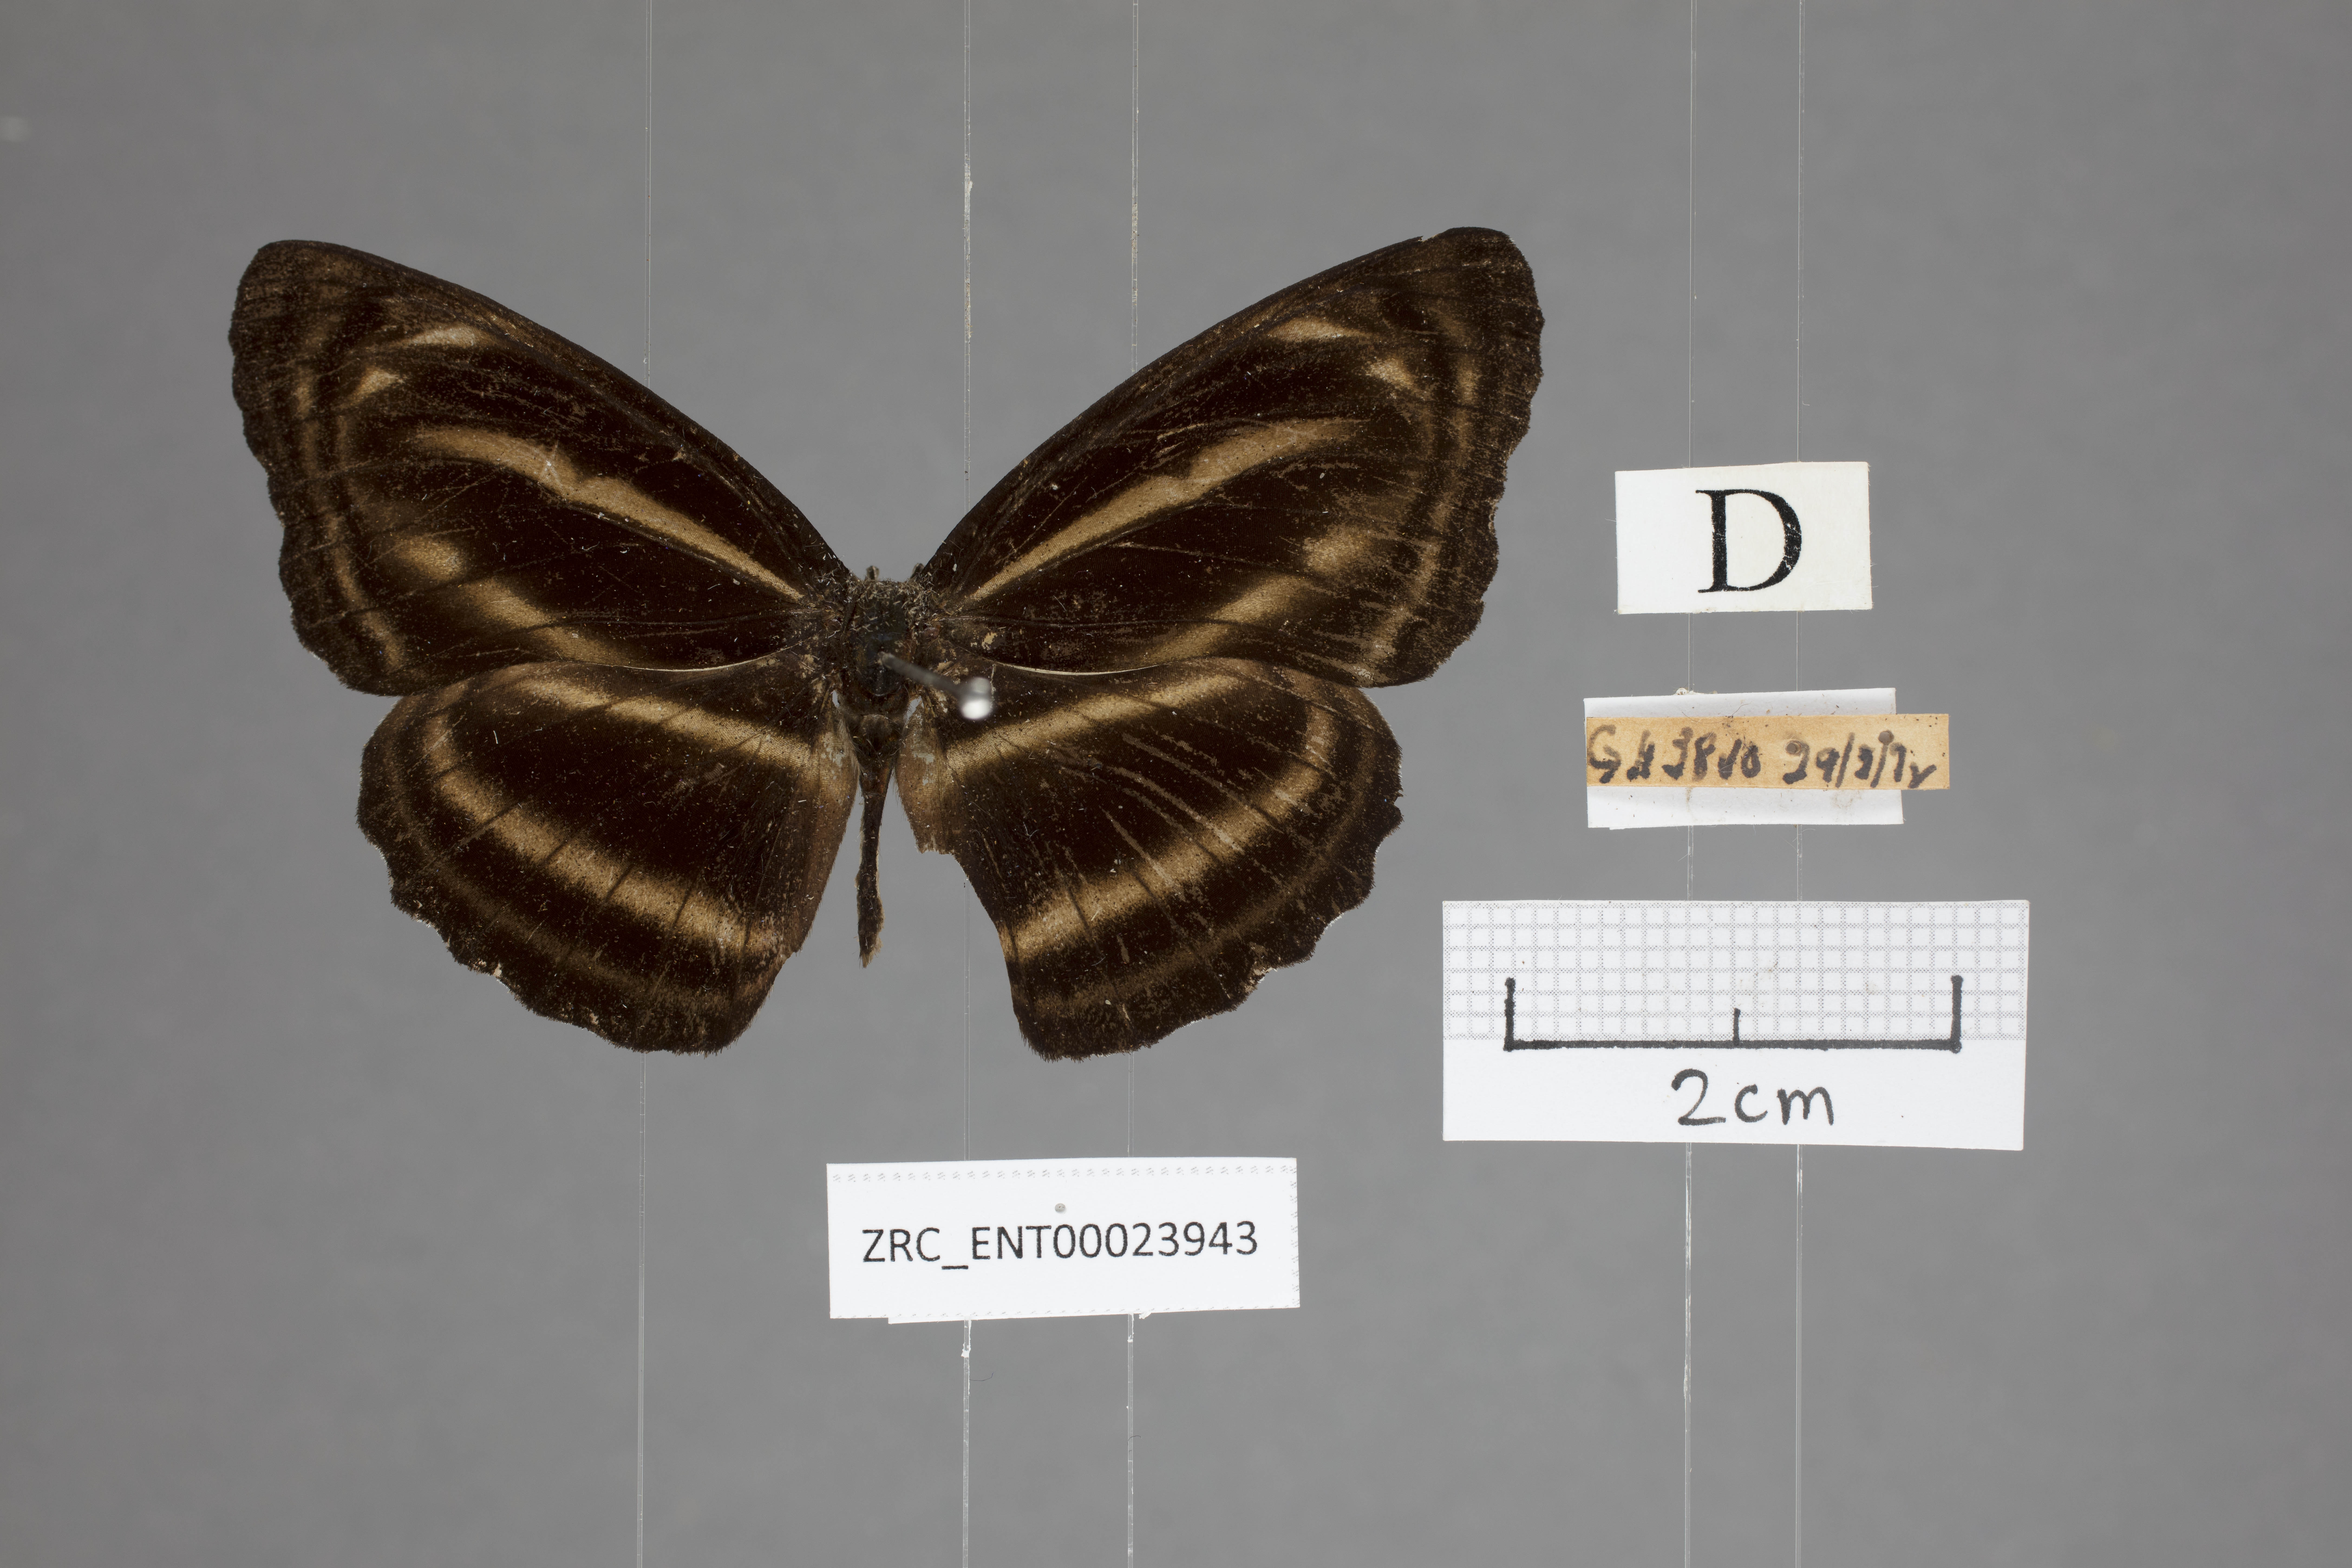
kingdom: Animalia
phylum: Arthropoda
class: Insecta
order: Lepidoptera
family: Nymphalidae
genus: Neptis
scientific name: Neptis anjana
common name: Rich sailer
